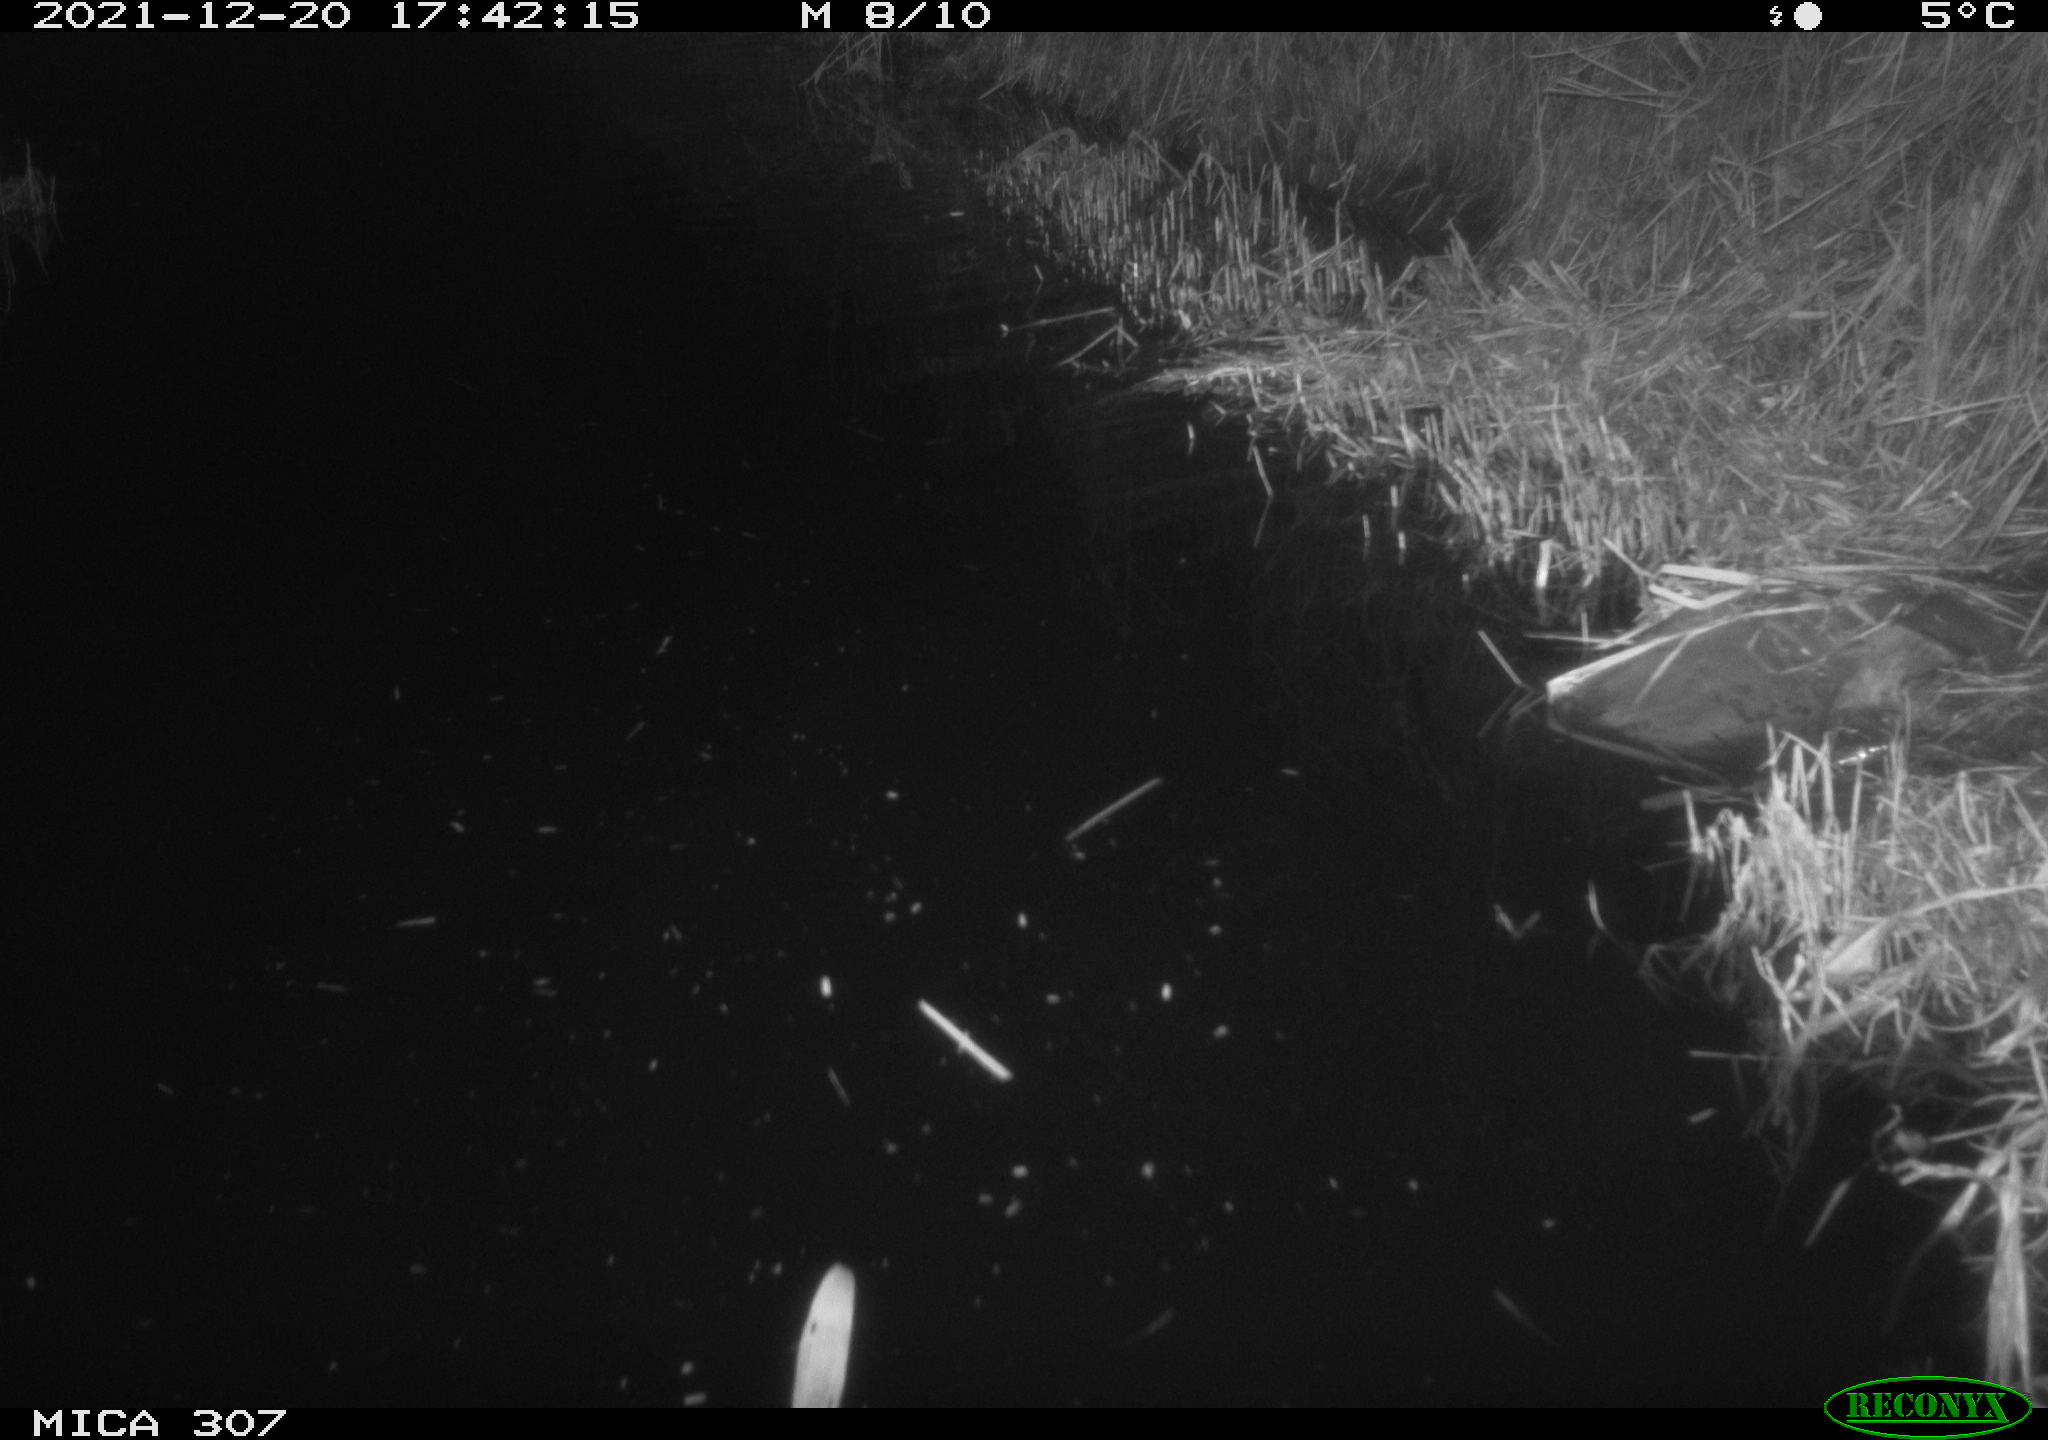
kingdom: Animalia
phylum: Chordata
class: Mammalia
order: Rodentia
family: Muridae
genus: Rattus
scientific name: Rattus norvegicus
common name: Brown rat
